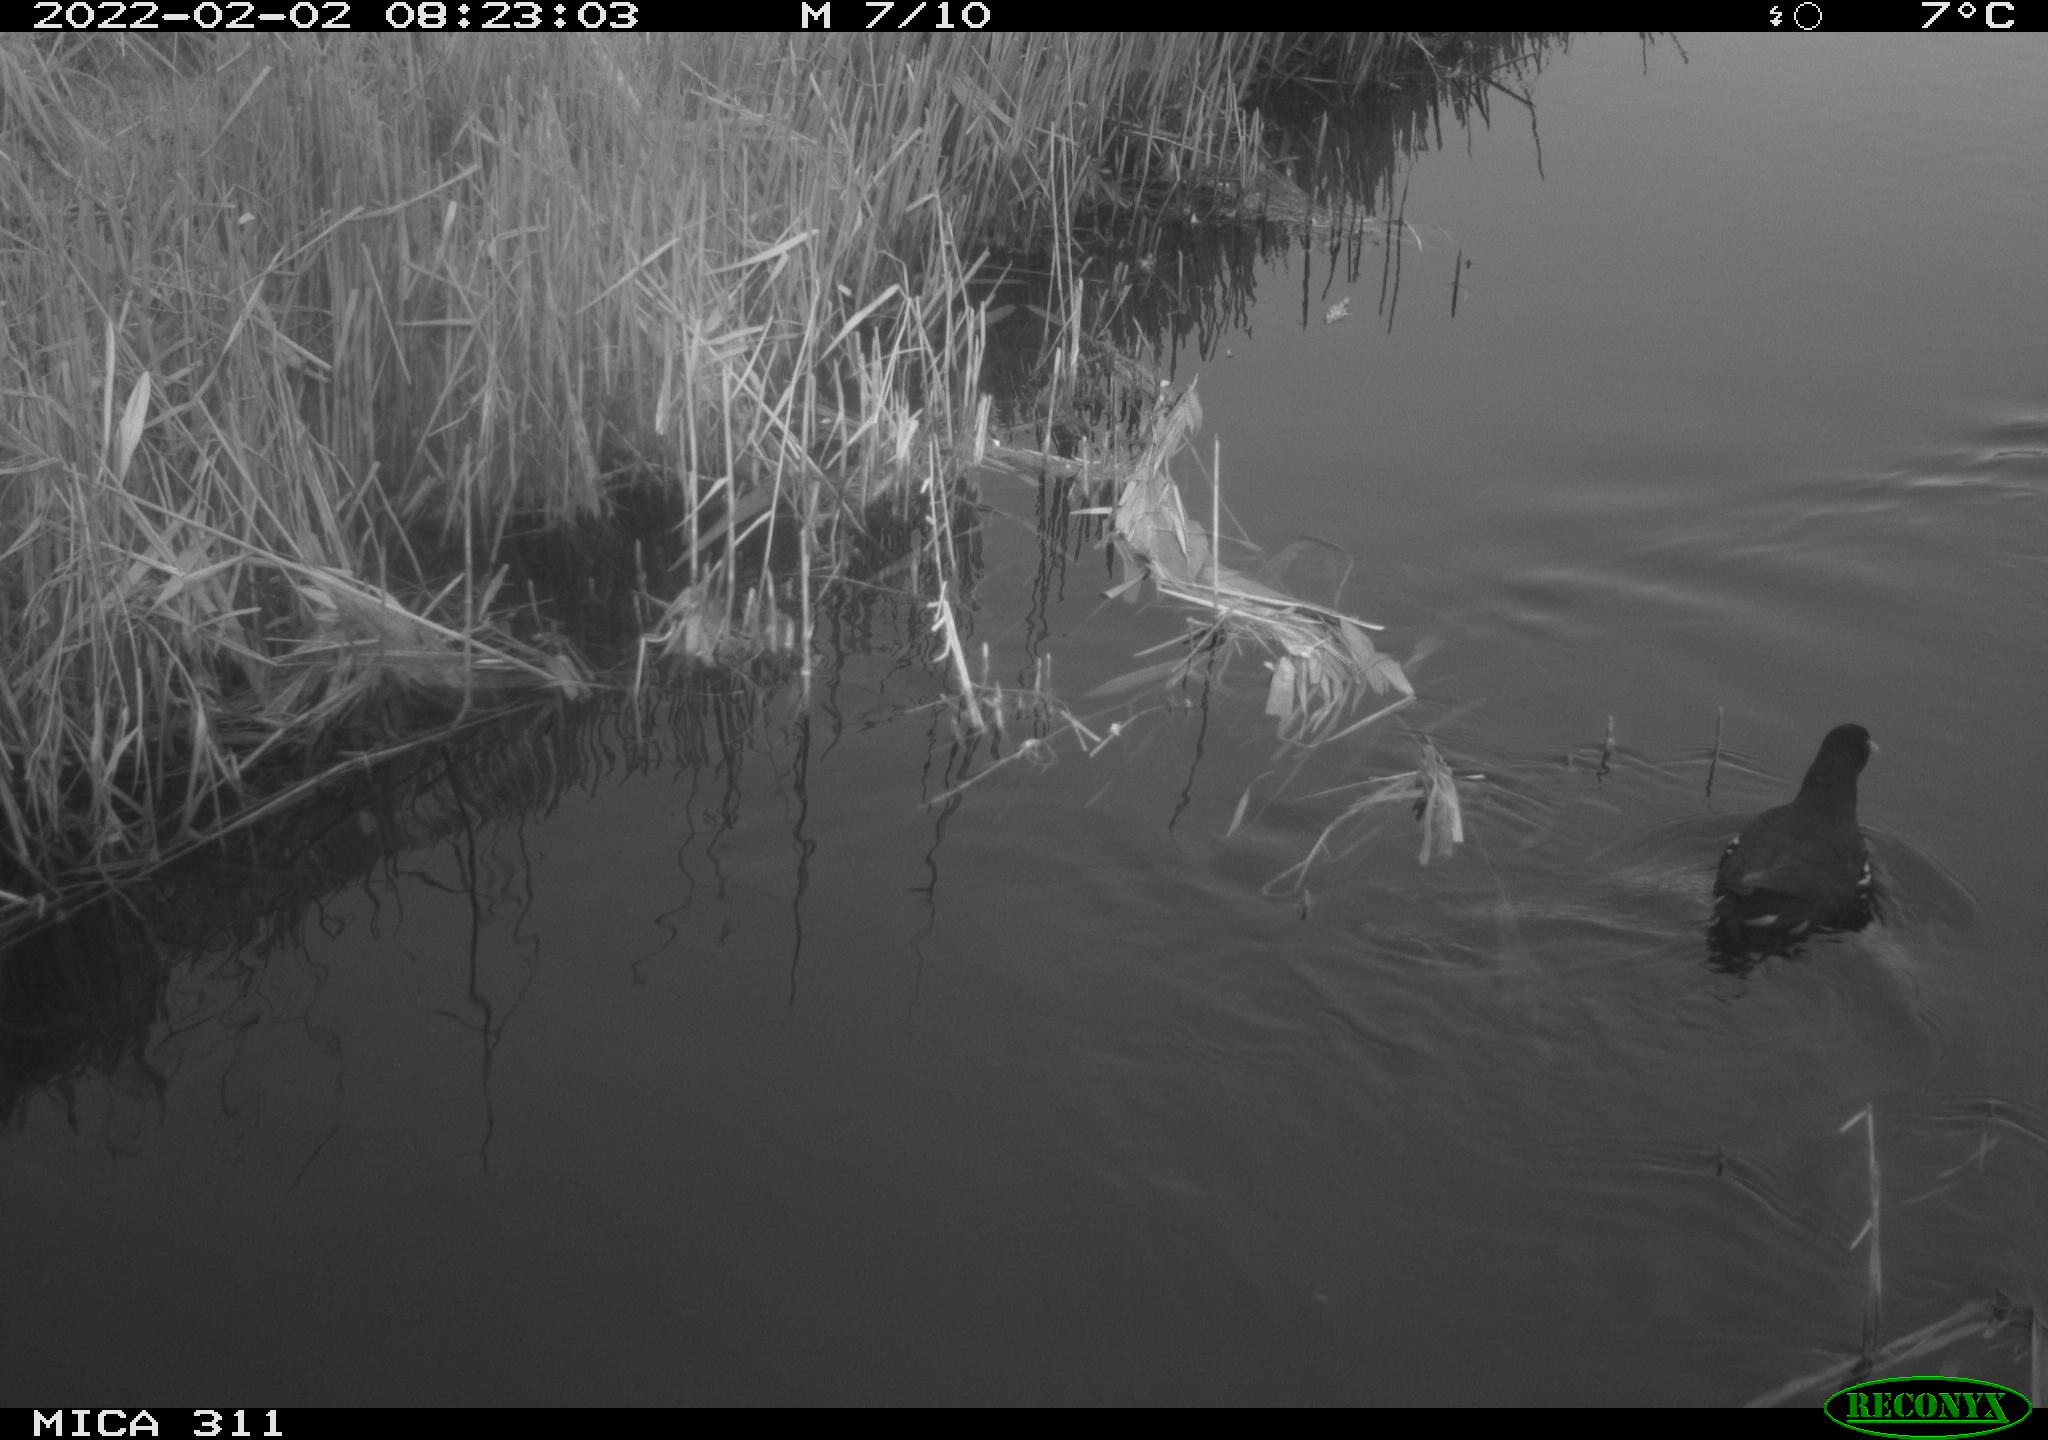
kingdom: Animalia
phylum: Chordata
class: Aves
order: Gruiformes
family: Rallidae
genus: Gallinula
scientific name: Gallinula chloropus
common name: Common moorhen
